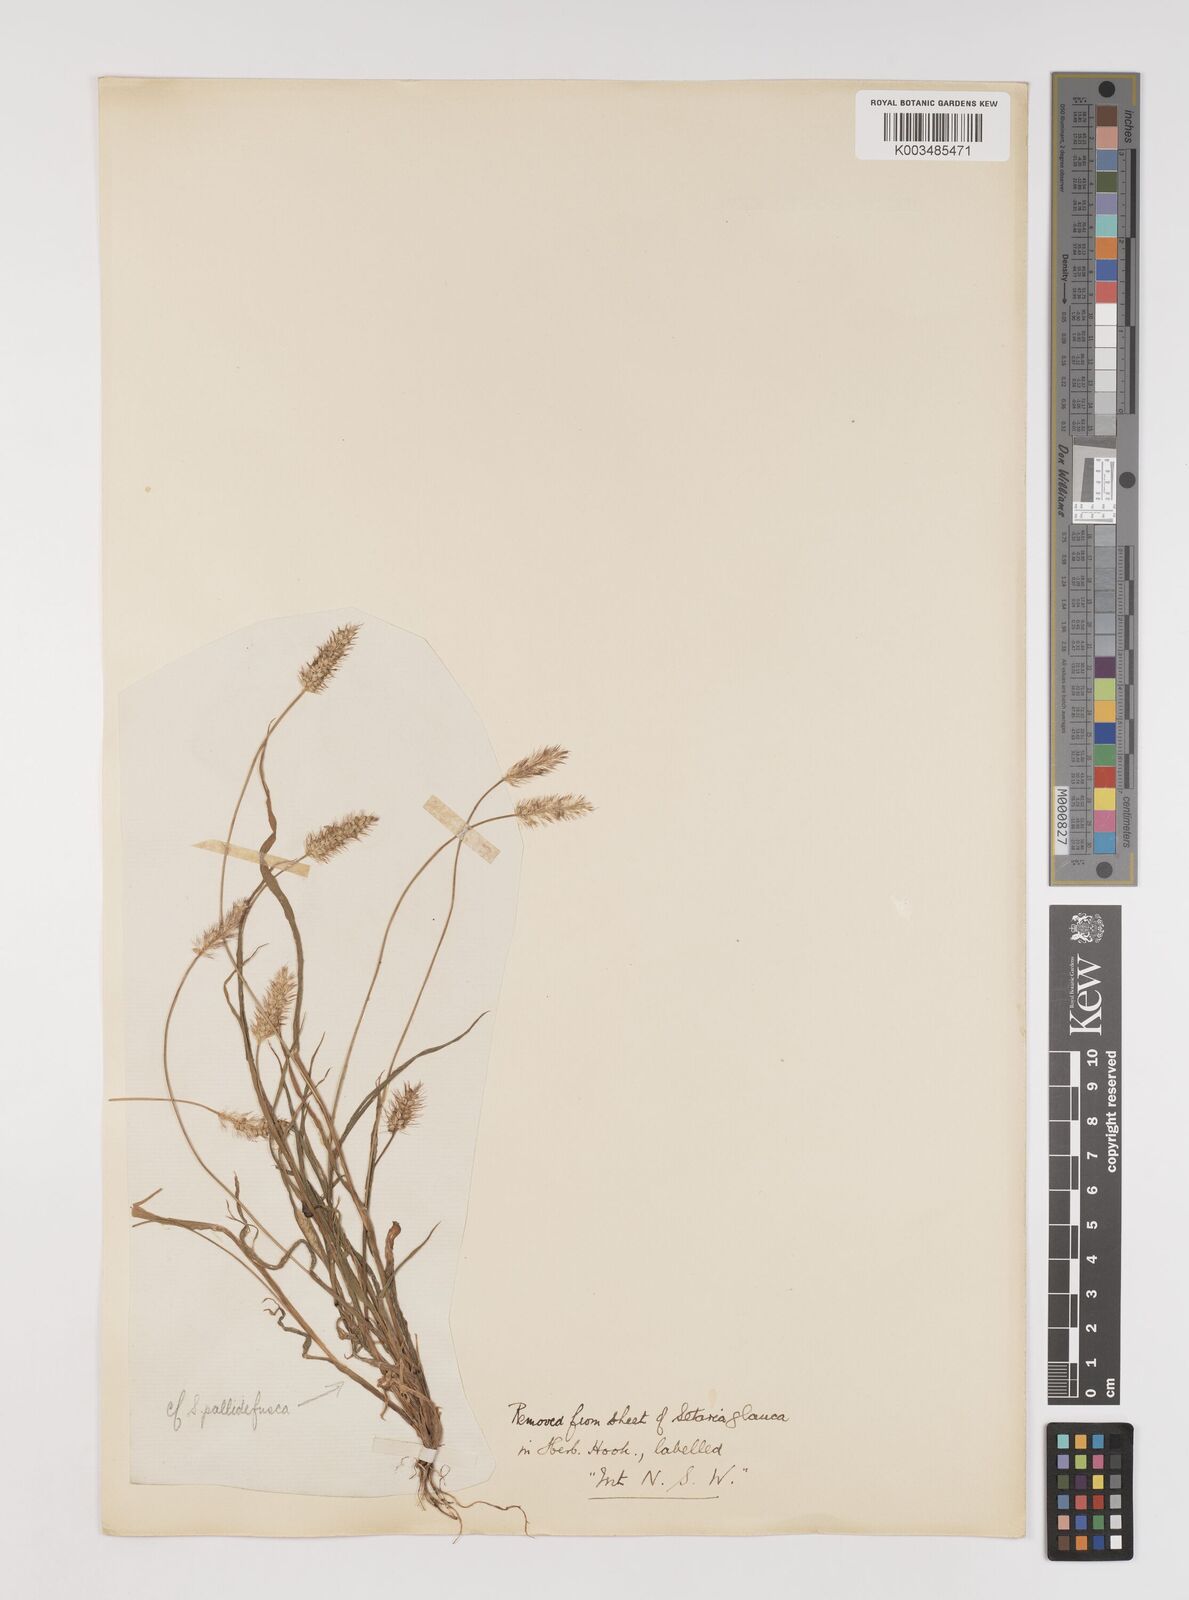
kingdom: Plantae
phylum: Tracheophyta
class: Liliopsida
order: Poales
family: Poaceae
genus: Setaria
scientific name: Setaria pumila
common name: Yellow bristle-grass
